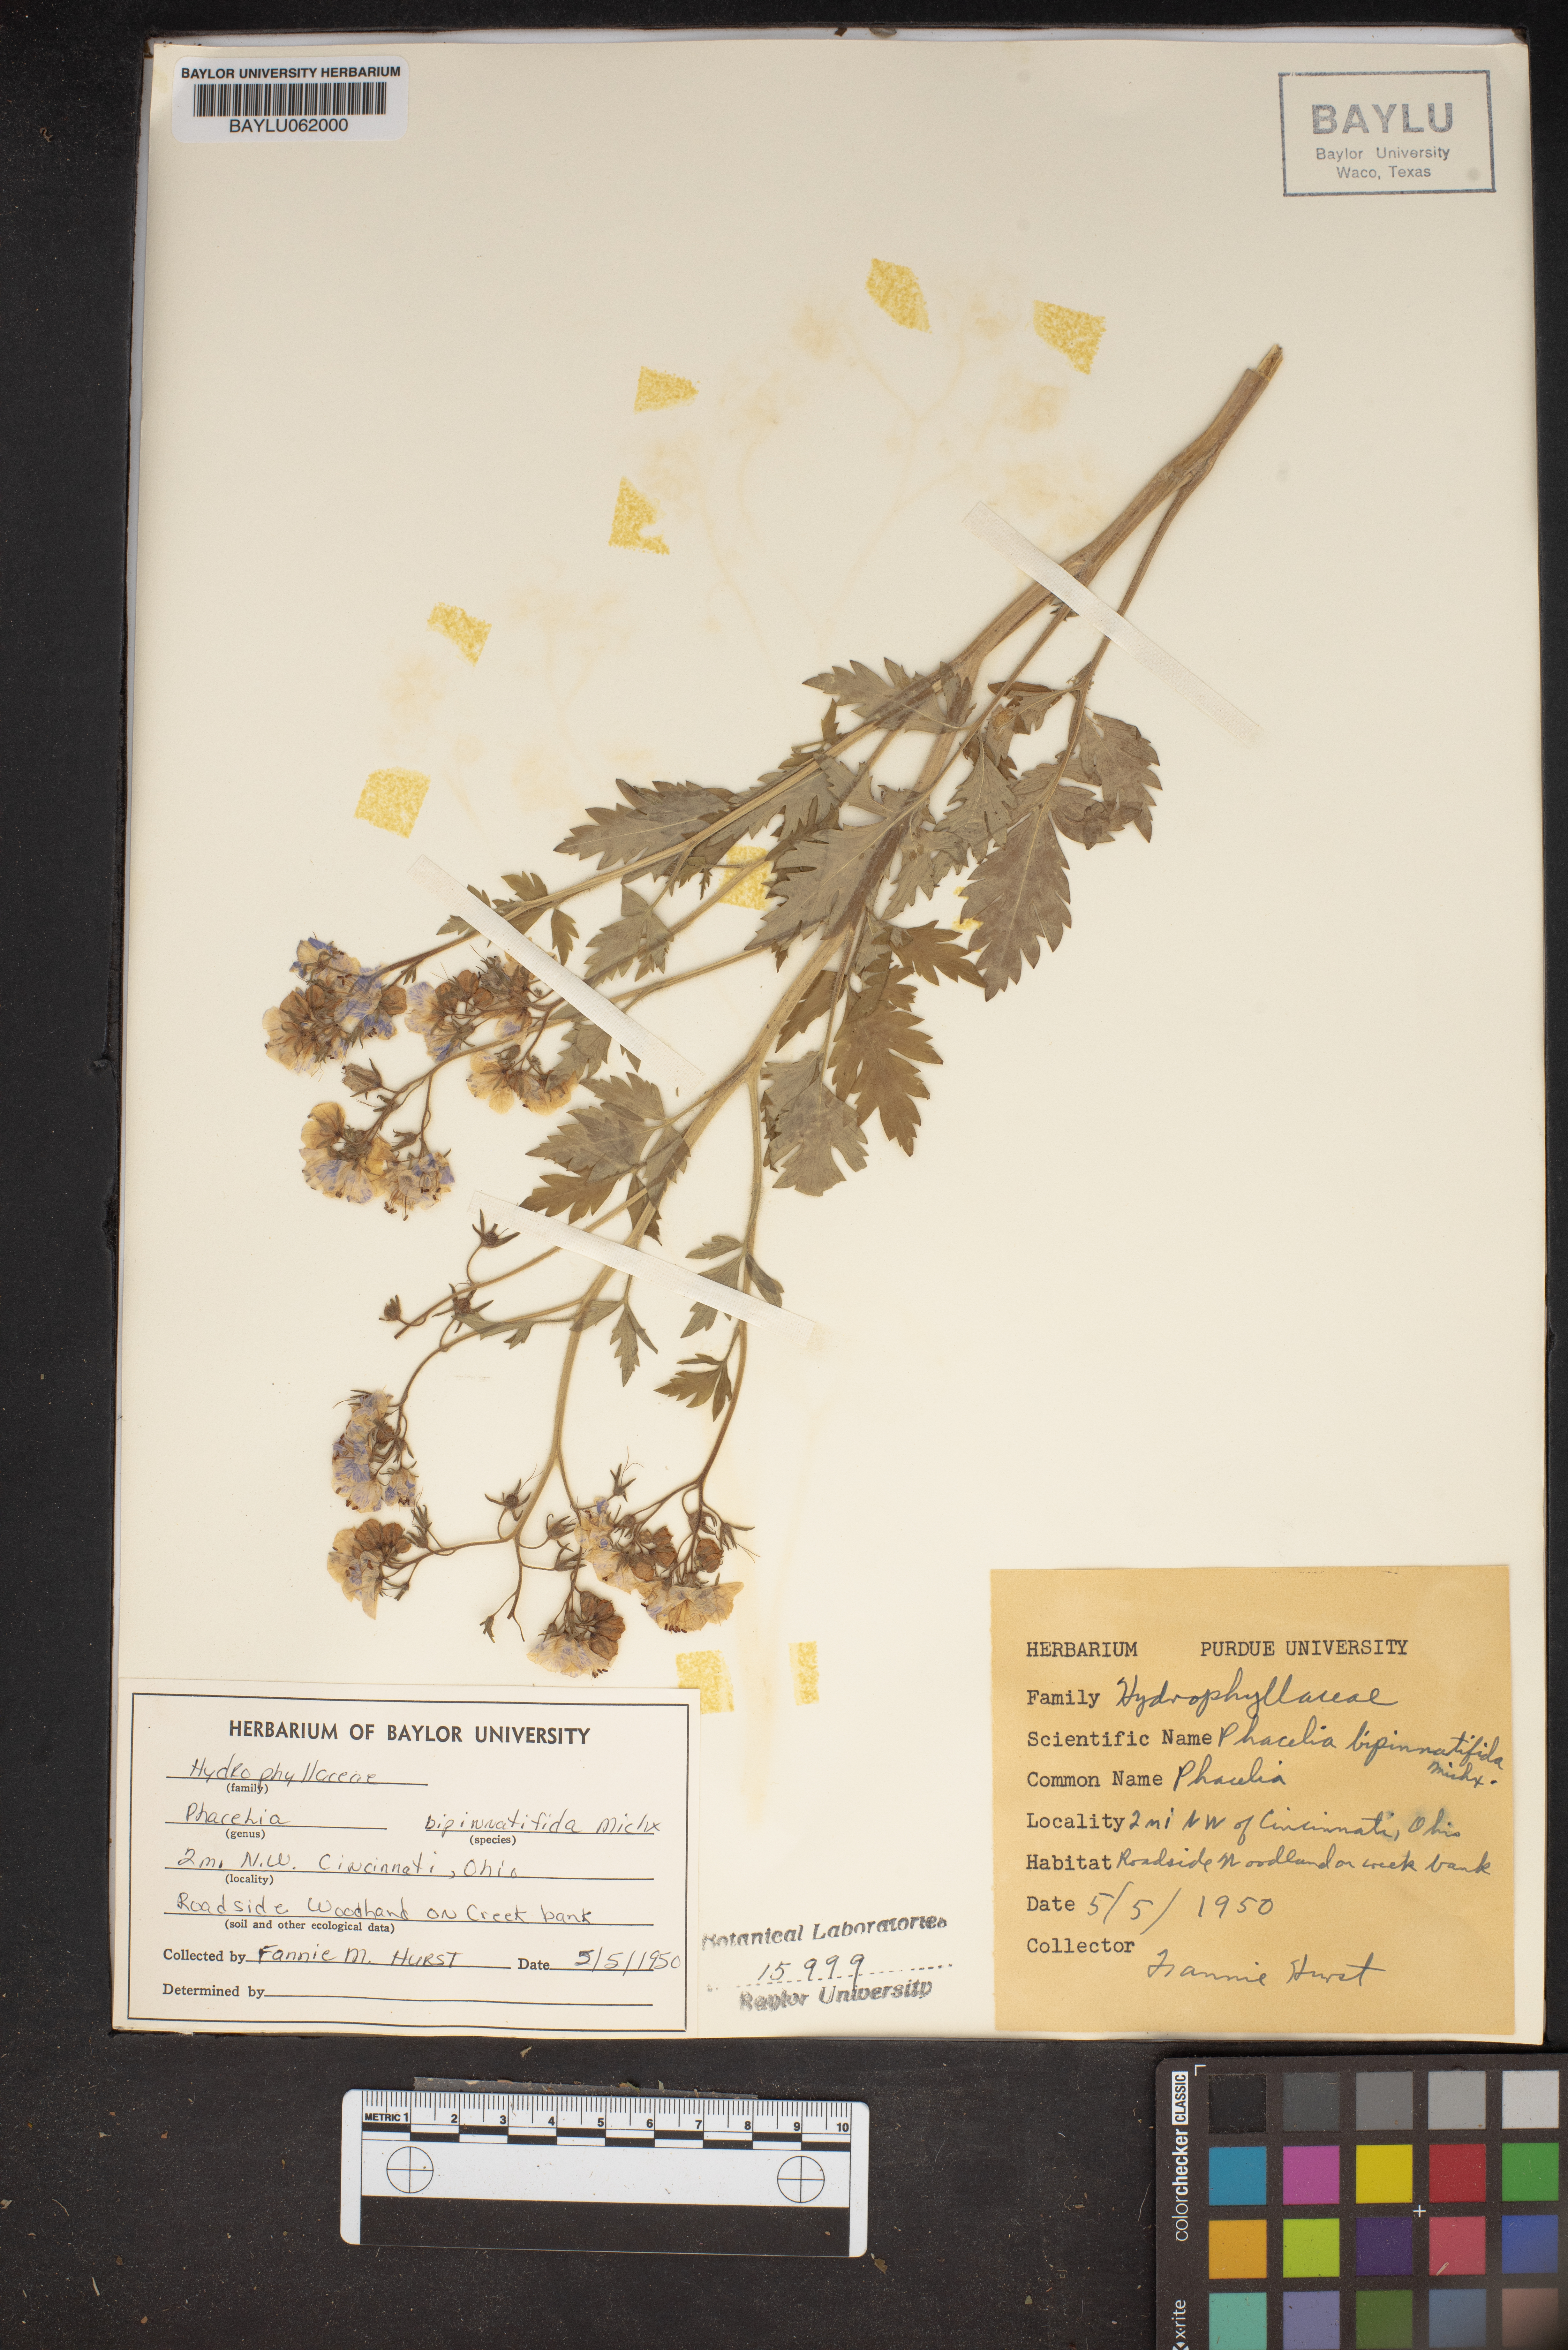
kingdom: Plantae
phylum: Tracheophyta
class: Magnoliopsida
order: Boraginales
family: Hydrophyllaceae
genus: Phacelia
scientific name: Phacelia bipinnatifida
